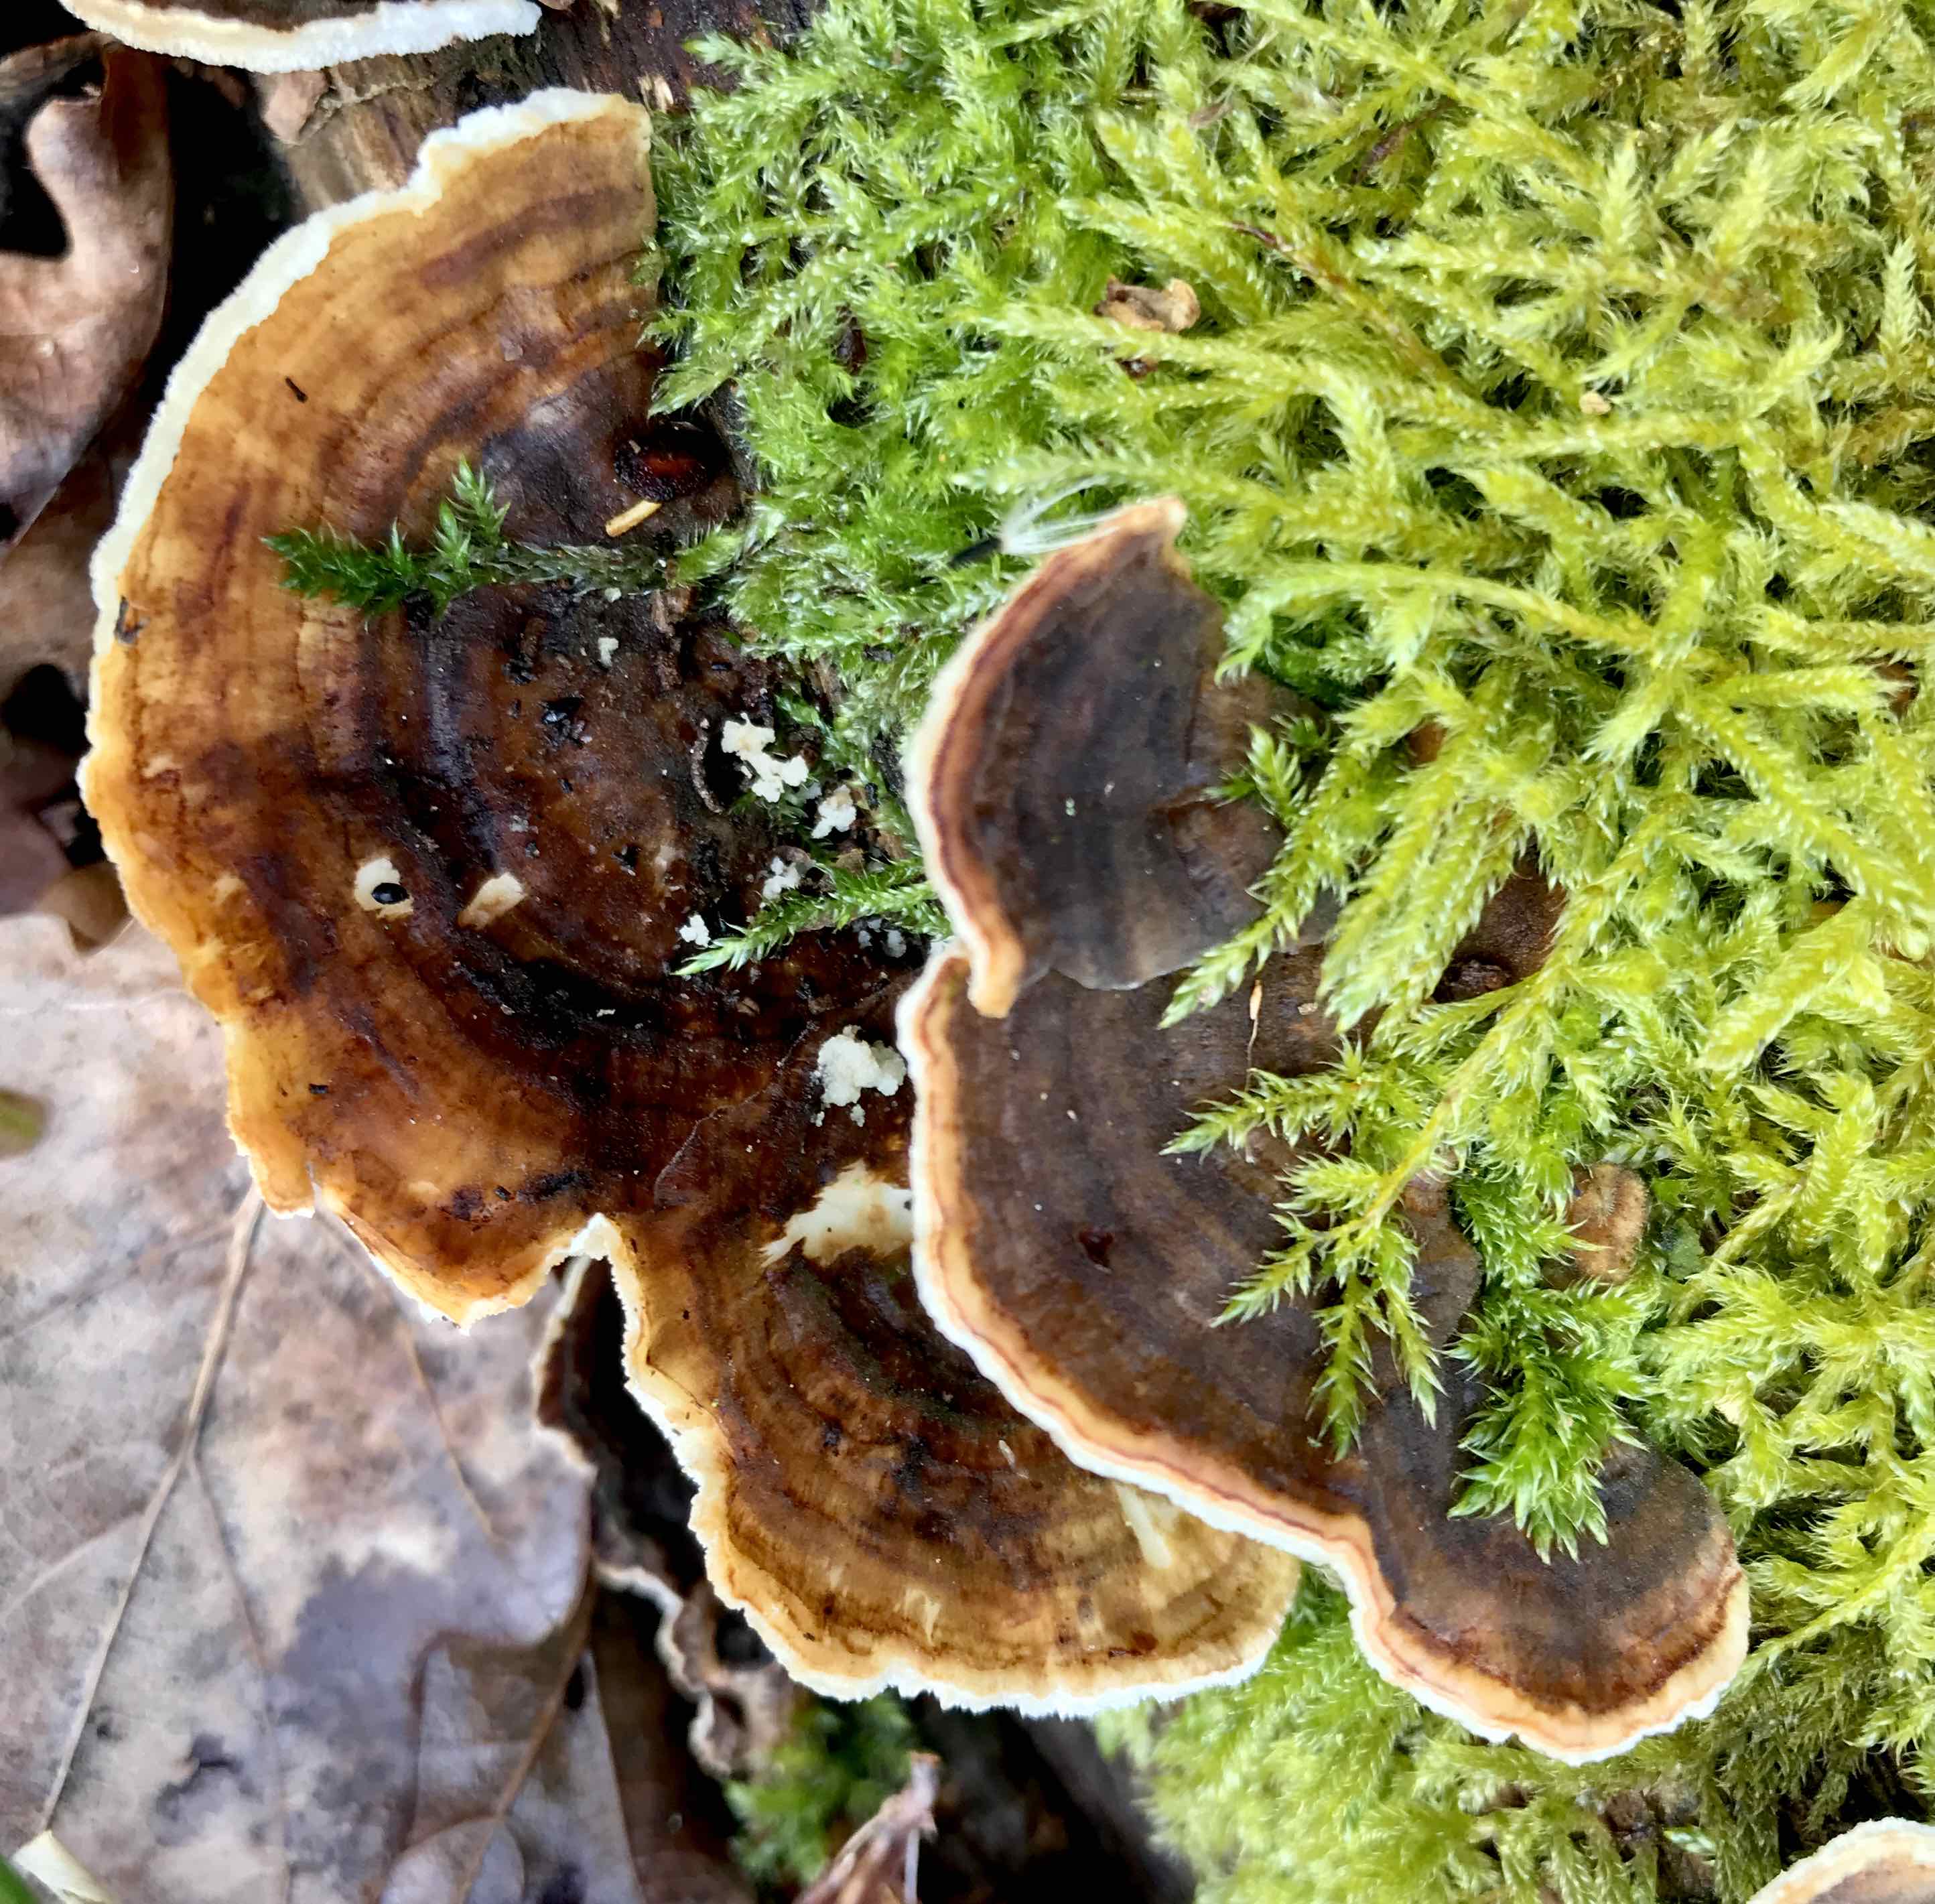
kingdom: Fungi
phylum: Basidiomycota
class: Agaricomycetes
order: Polyporales
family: Polyporaceae
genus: Trametes
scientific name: Trametes versicolor
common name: broget læderporesvamp
